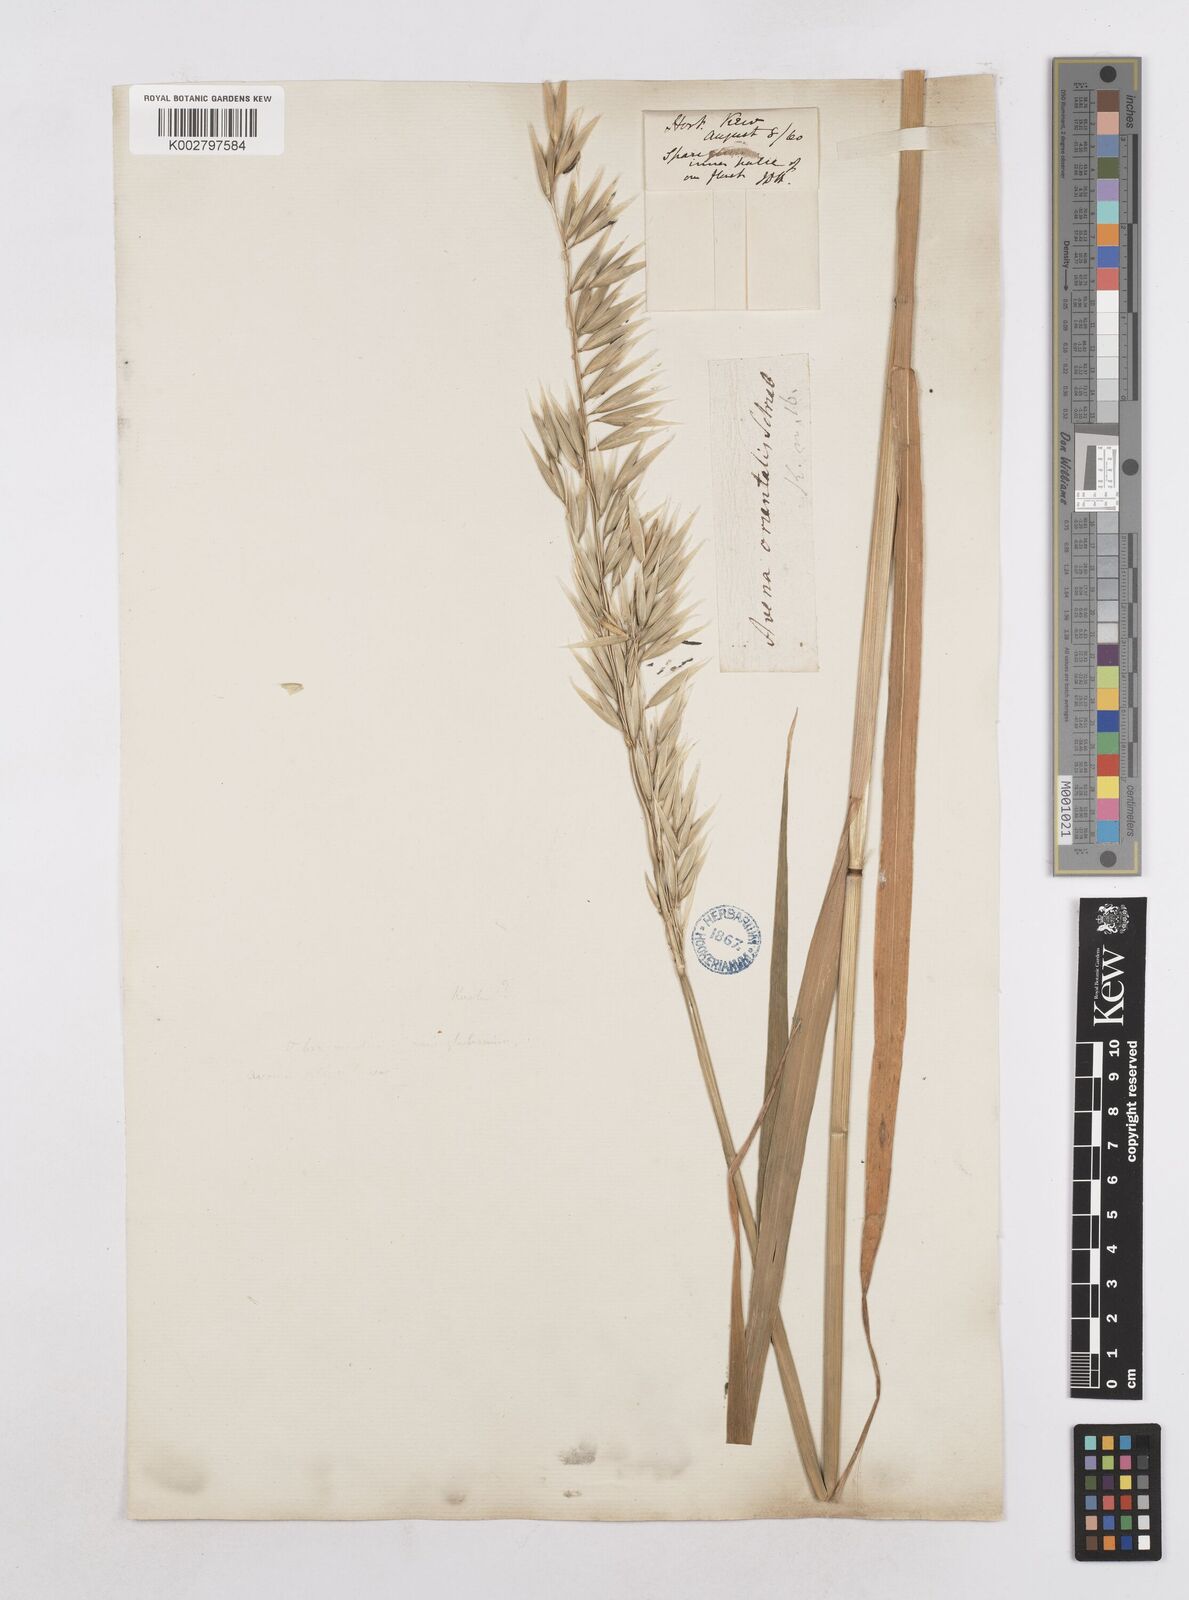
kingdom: Plantae
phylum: Tracheophyta
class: Liliopsida
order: Poales
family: Poaceae
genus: Avena
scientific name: Avena sativa
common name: Oat
